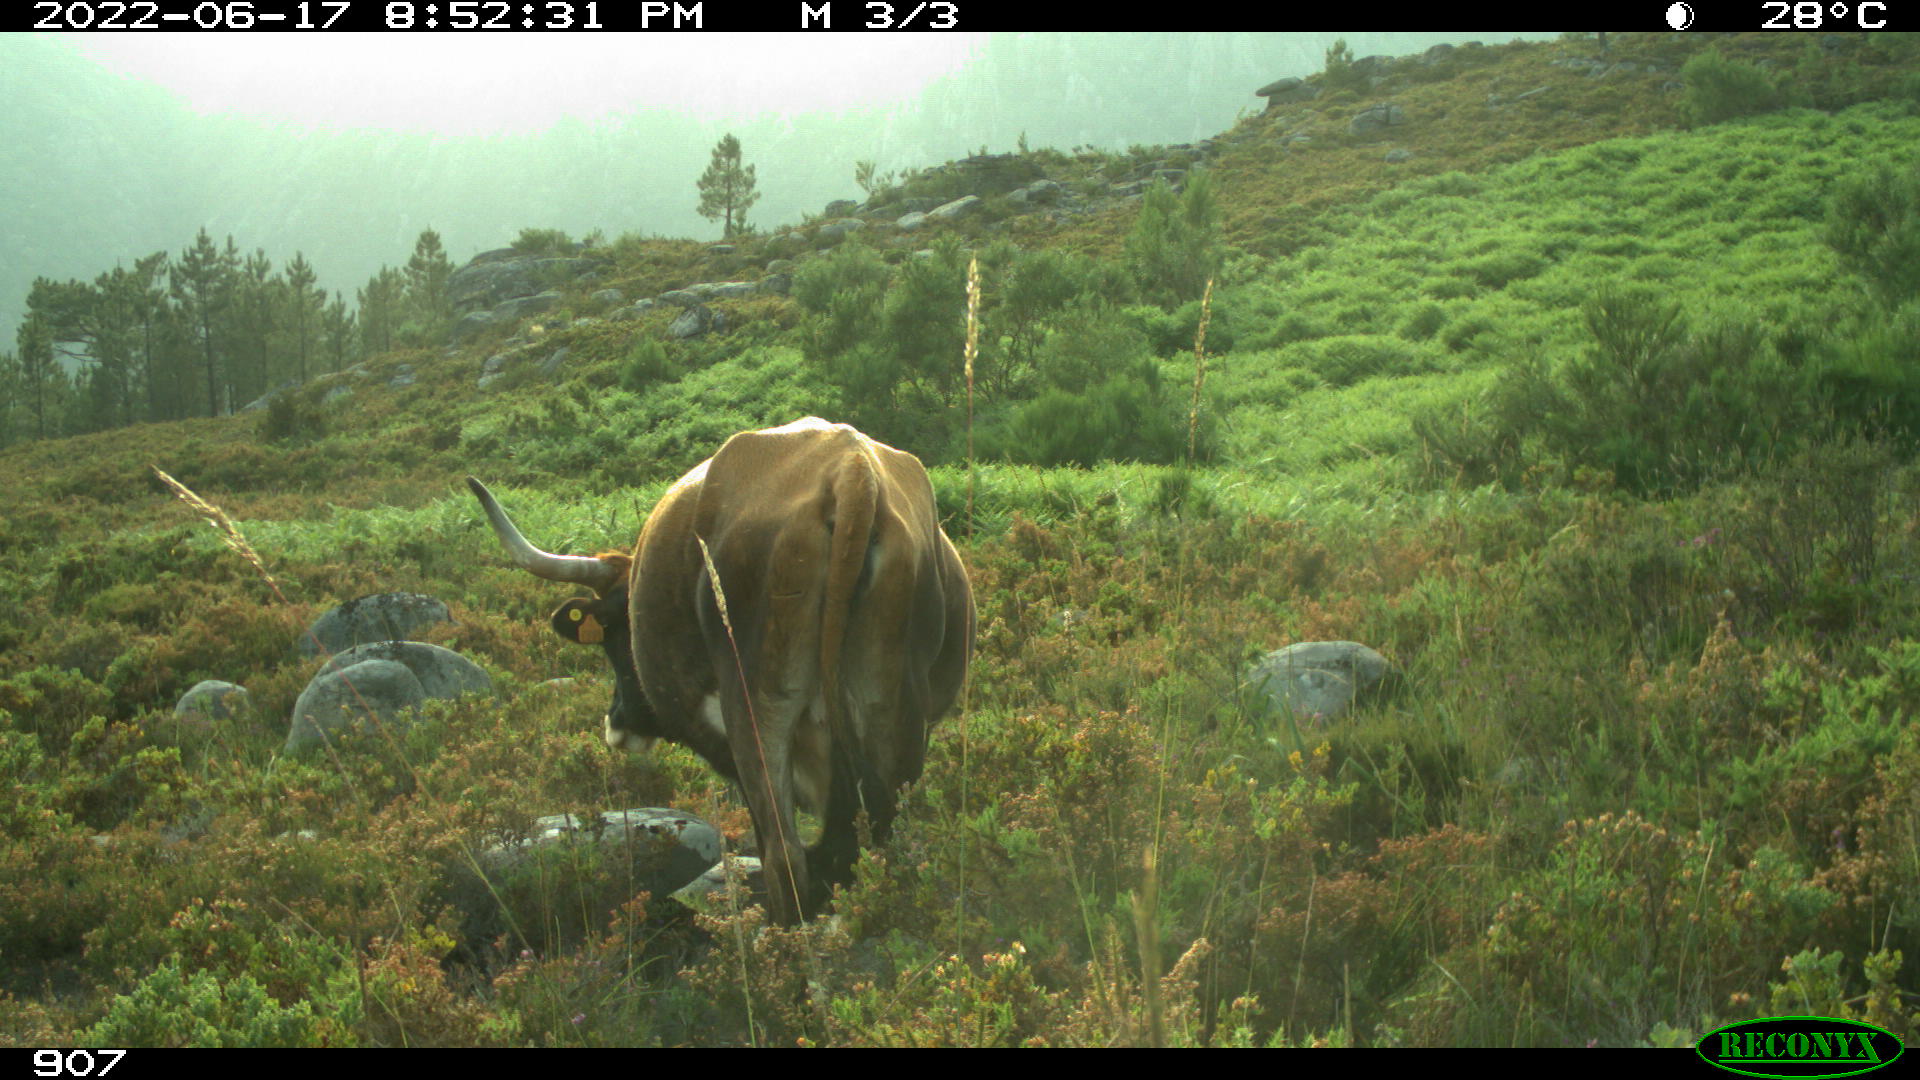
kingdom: Animalia
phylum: Chordata
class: Mammalia
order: Artiodactyla
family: Bovidae
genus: Bos
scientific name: Bos taurus
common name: Domesticated cattle
